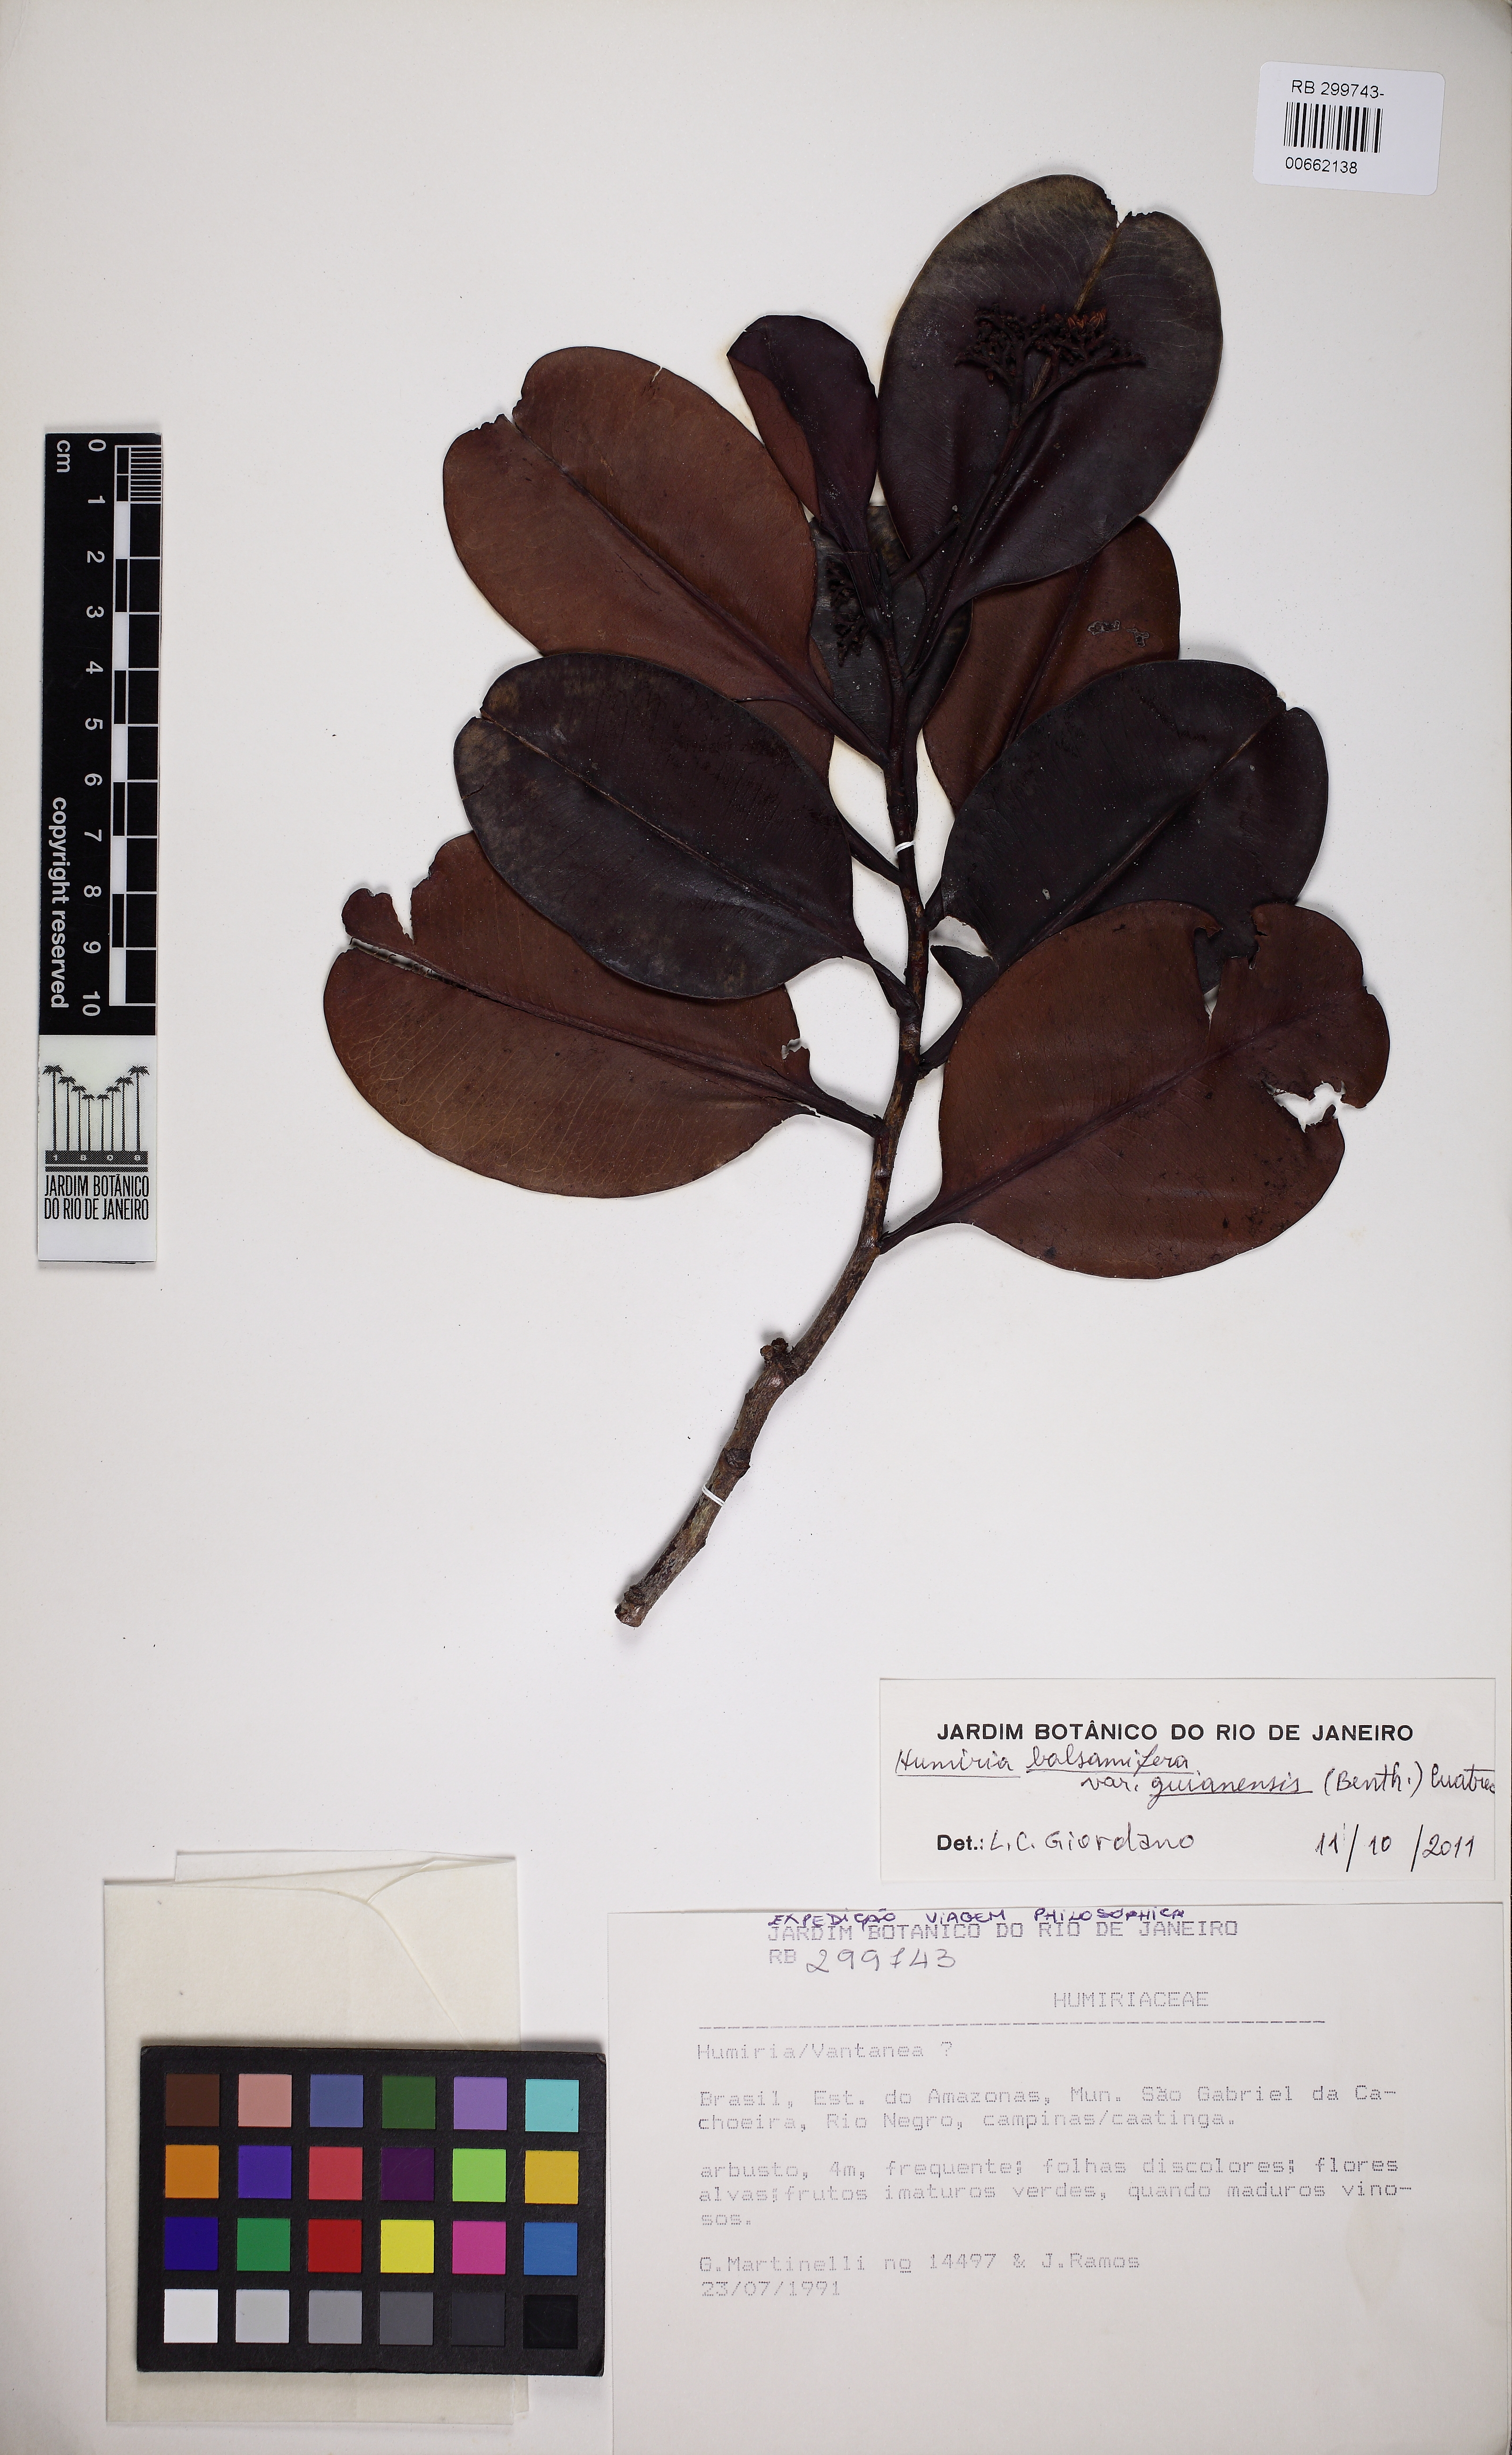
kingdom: Plantae
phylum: Tracheophyta
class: Magnoliopsida
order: Malpighiales
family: Humiriaceae
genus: Humiria
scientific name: Humiria balsamifera
